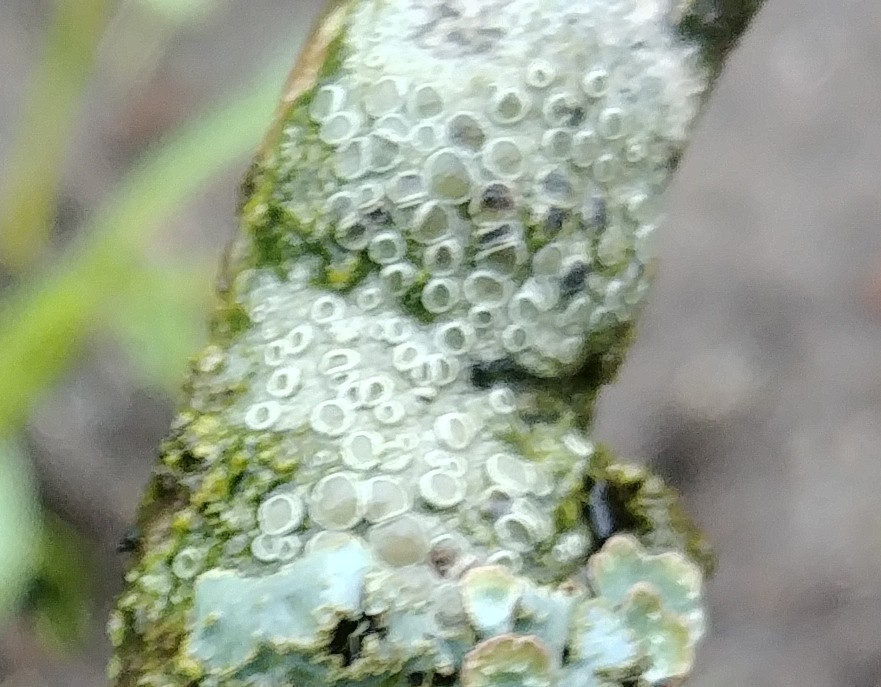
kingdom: Fungi
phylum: Ascomycota
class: Lecanoromycetes
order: Lecanorales
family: Lecanoraceae
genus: Lecanora
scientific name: Lecanora chlarotera
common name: brun kantskivelav
